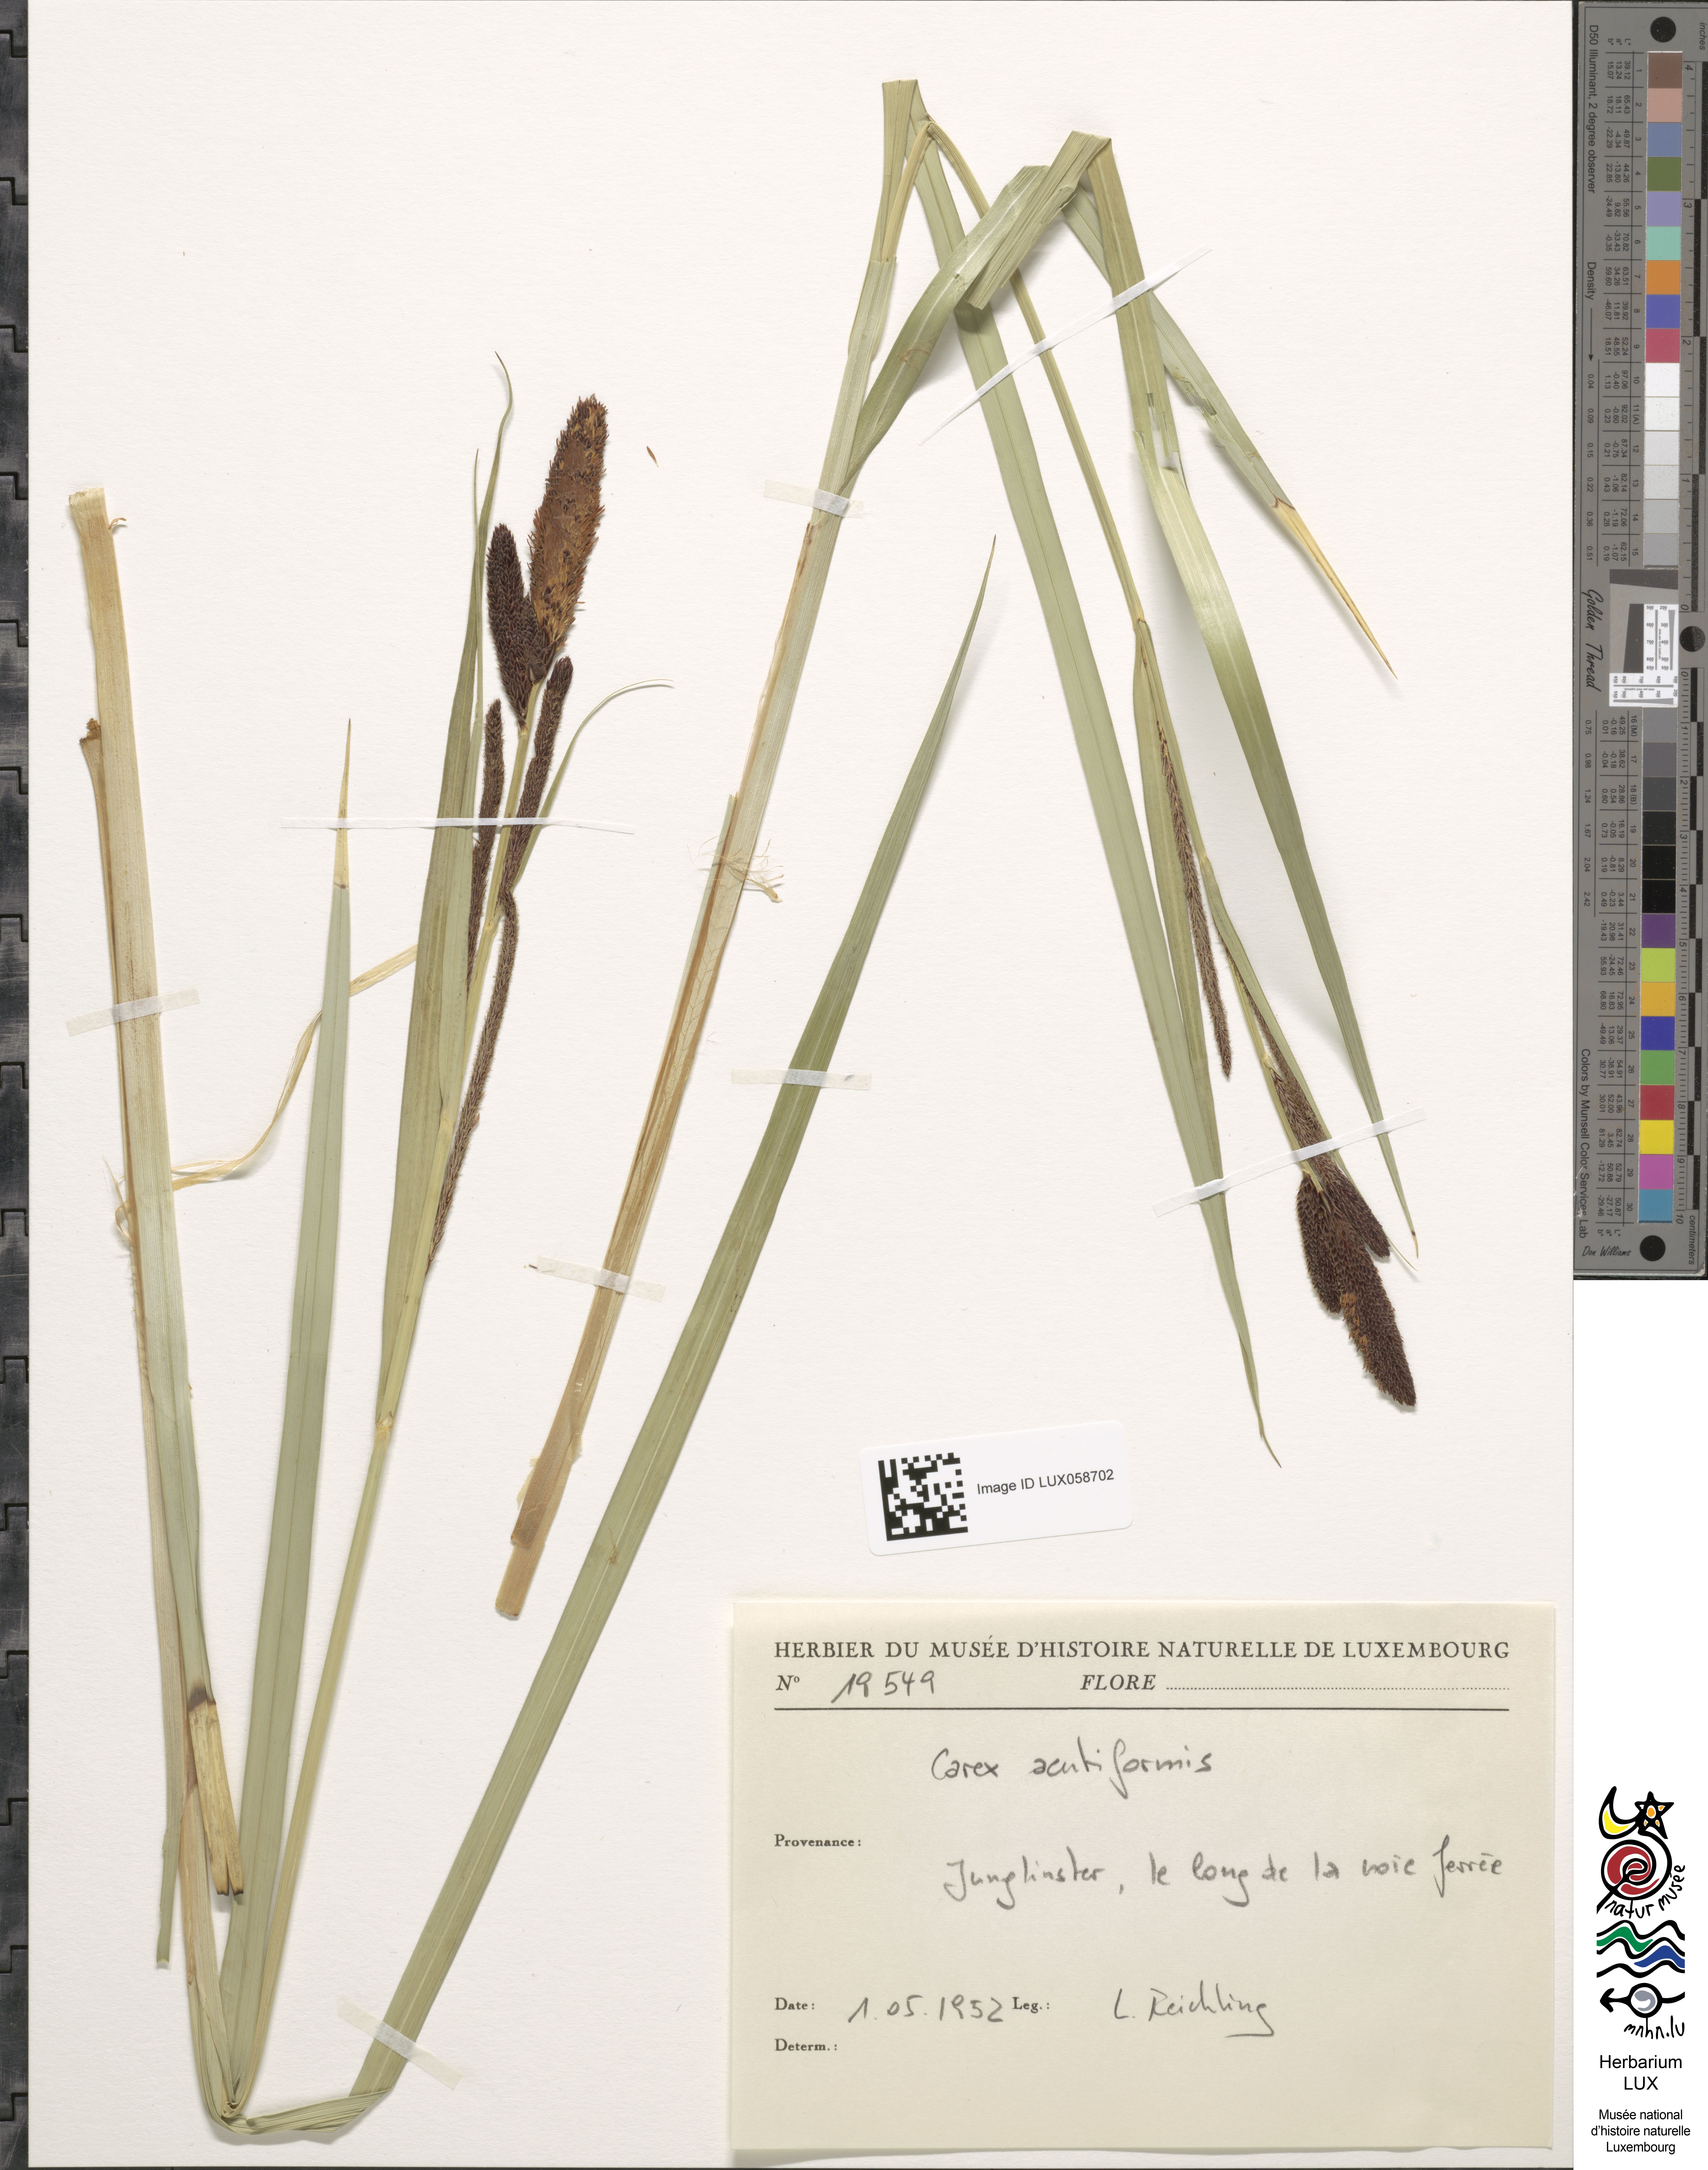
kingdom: Plantae
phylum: Tracheophyta
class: Liliopsida
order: Poales
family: Cyperaceae
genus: Carex
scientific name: Carex acutiformis
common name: Lesser pond-sedge
